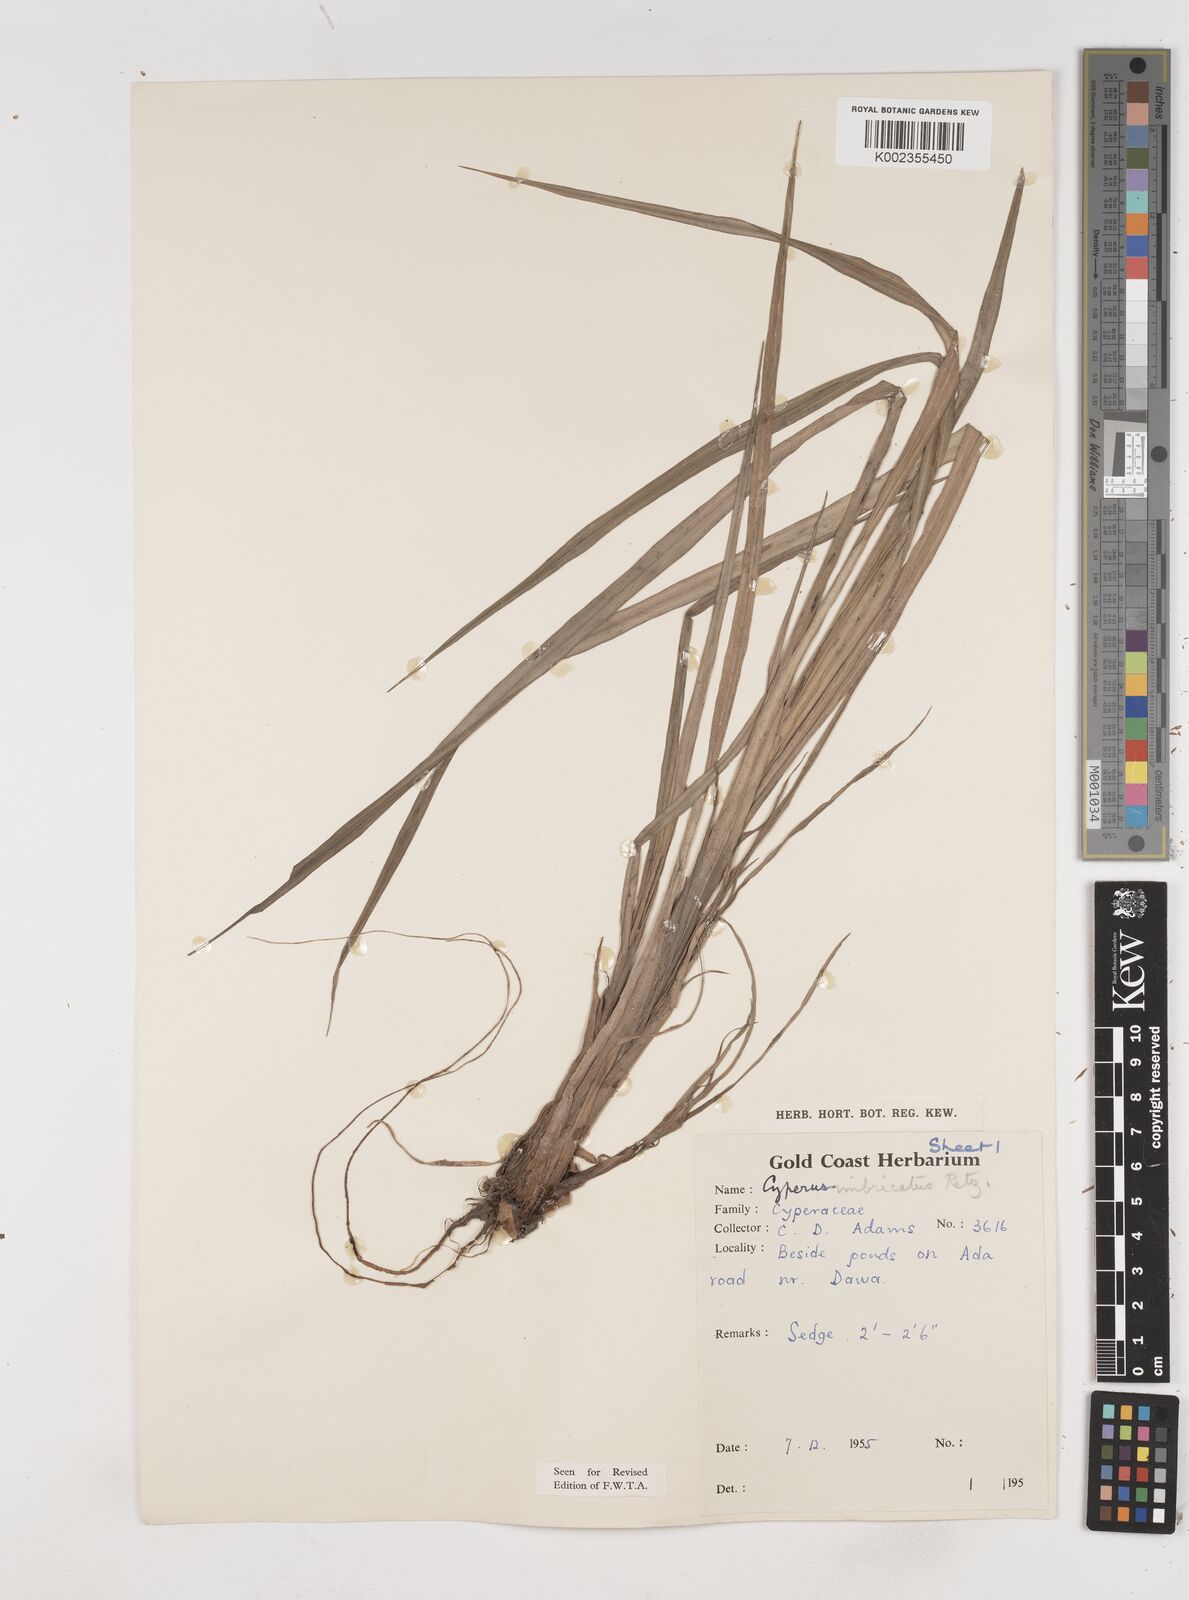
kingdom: Plantae
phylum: Tracheophyta
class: Liliopsida
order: Poales
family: Cyperaceae
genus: Cyperus
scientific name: Cyperus alopecuroides
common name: Foxtail flatsedge
